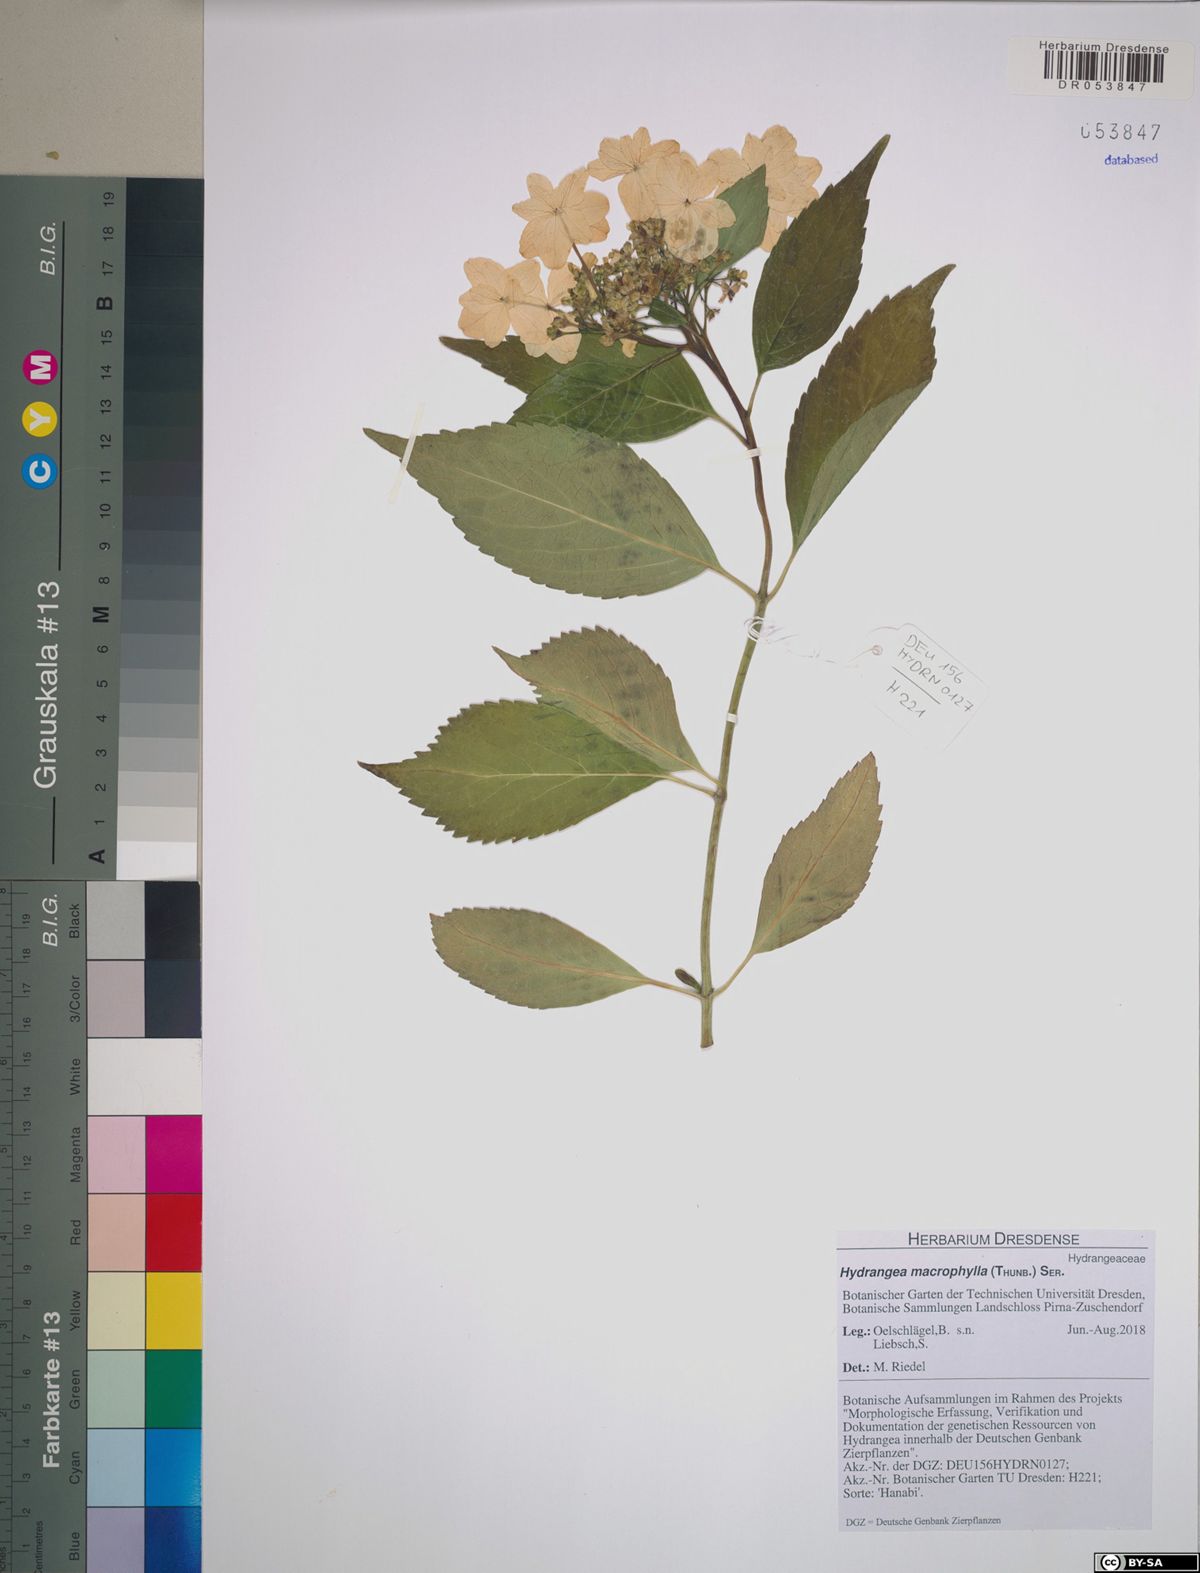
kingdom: Plantae
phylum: Tracheophyta
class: Magnoliopsida
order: Cornales
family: Hydrangeaceae
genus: Hydrangea
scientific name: Hydrangea macrophylla
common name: Hydrangea
